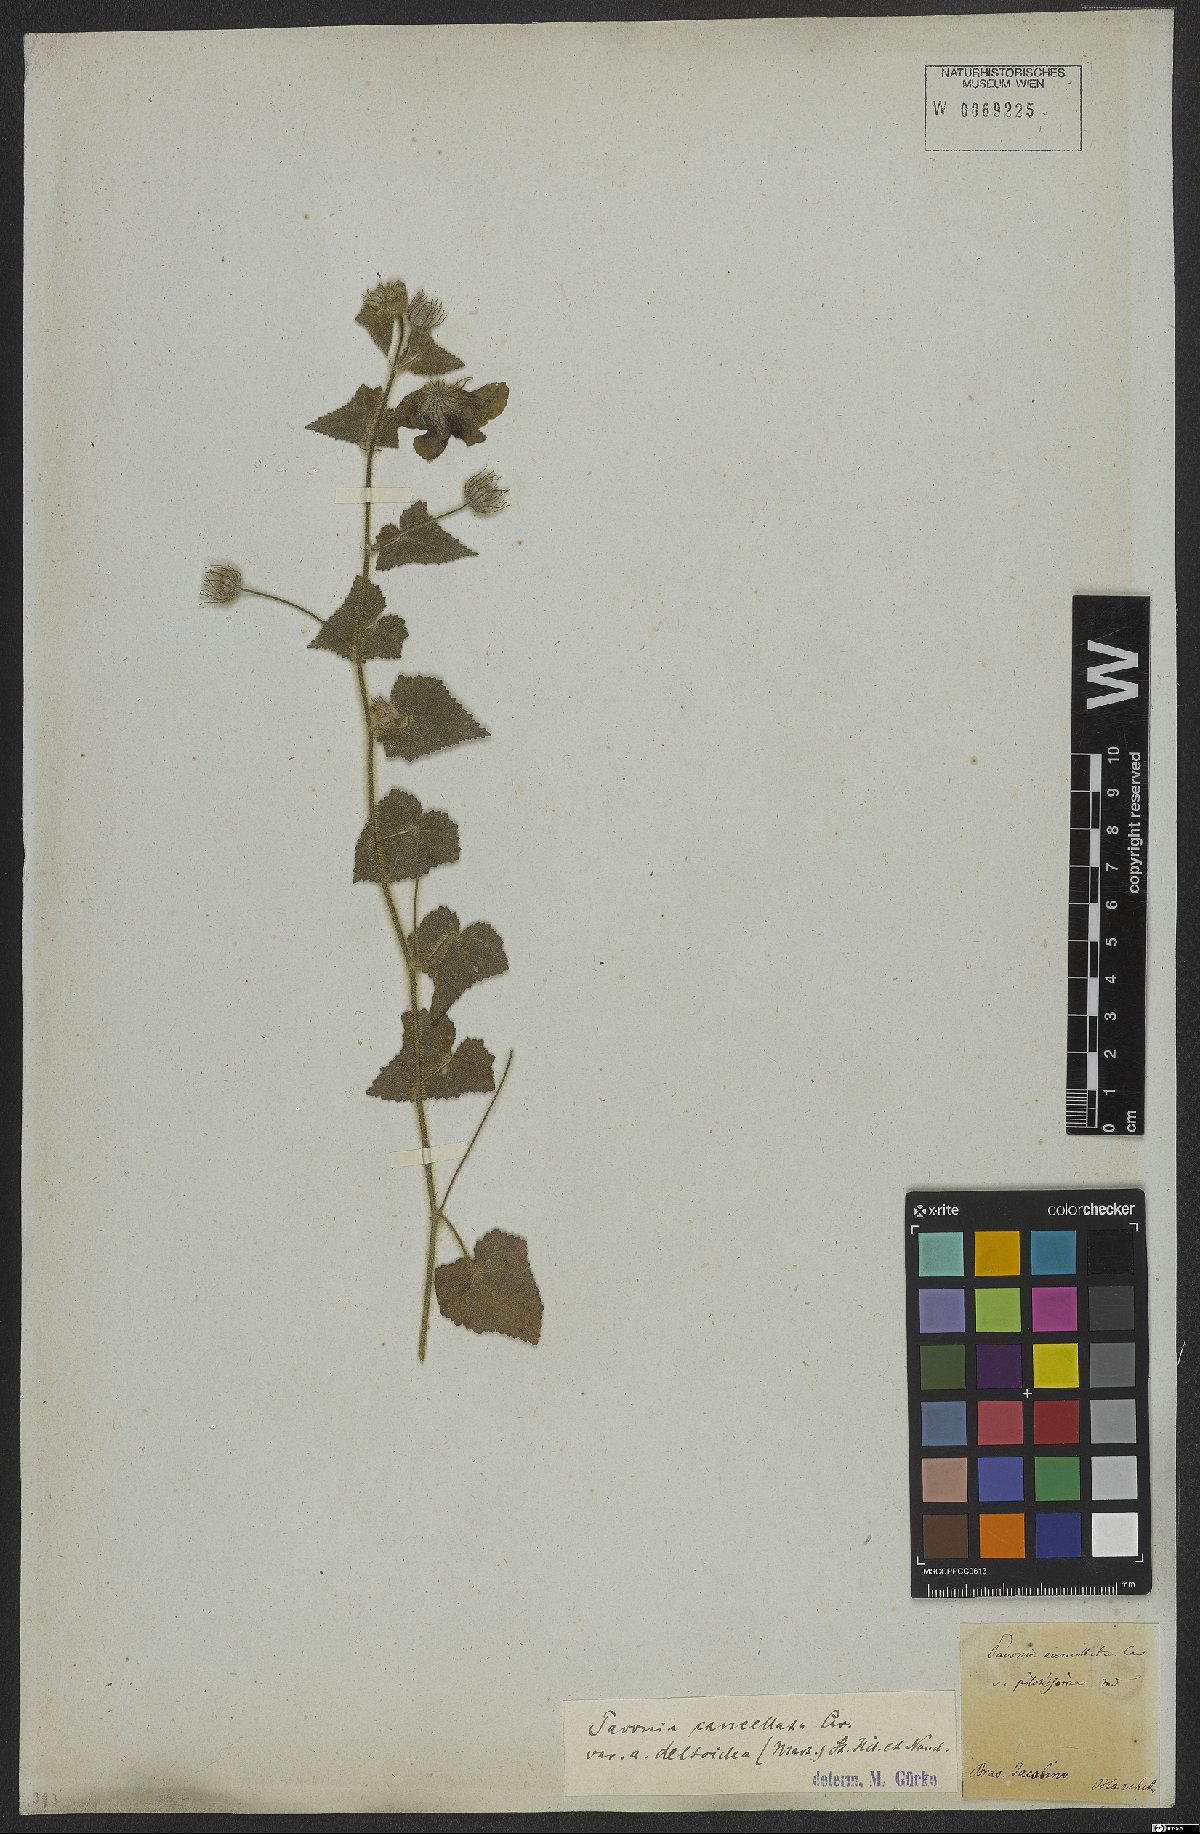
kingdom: Plantae
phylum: Tracheophyta
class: Magnoliopsida
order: Malvales
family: Malvaceae
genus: Pavonia
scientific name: Pavonia cancellata
